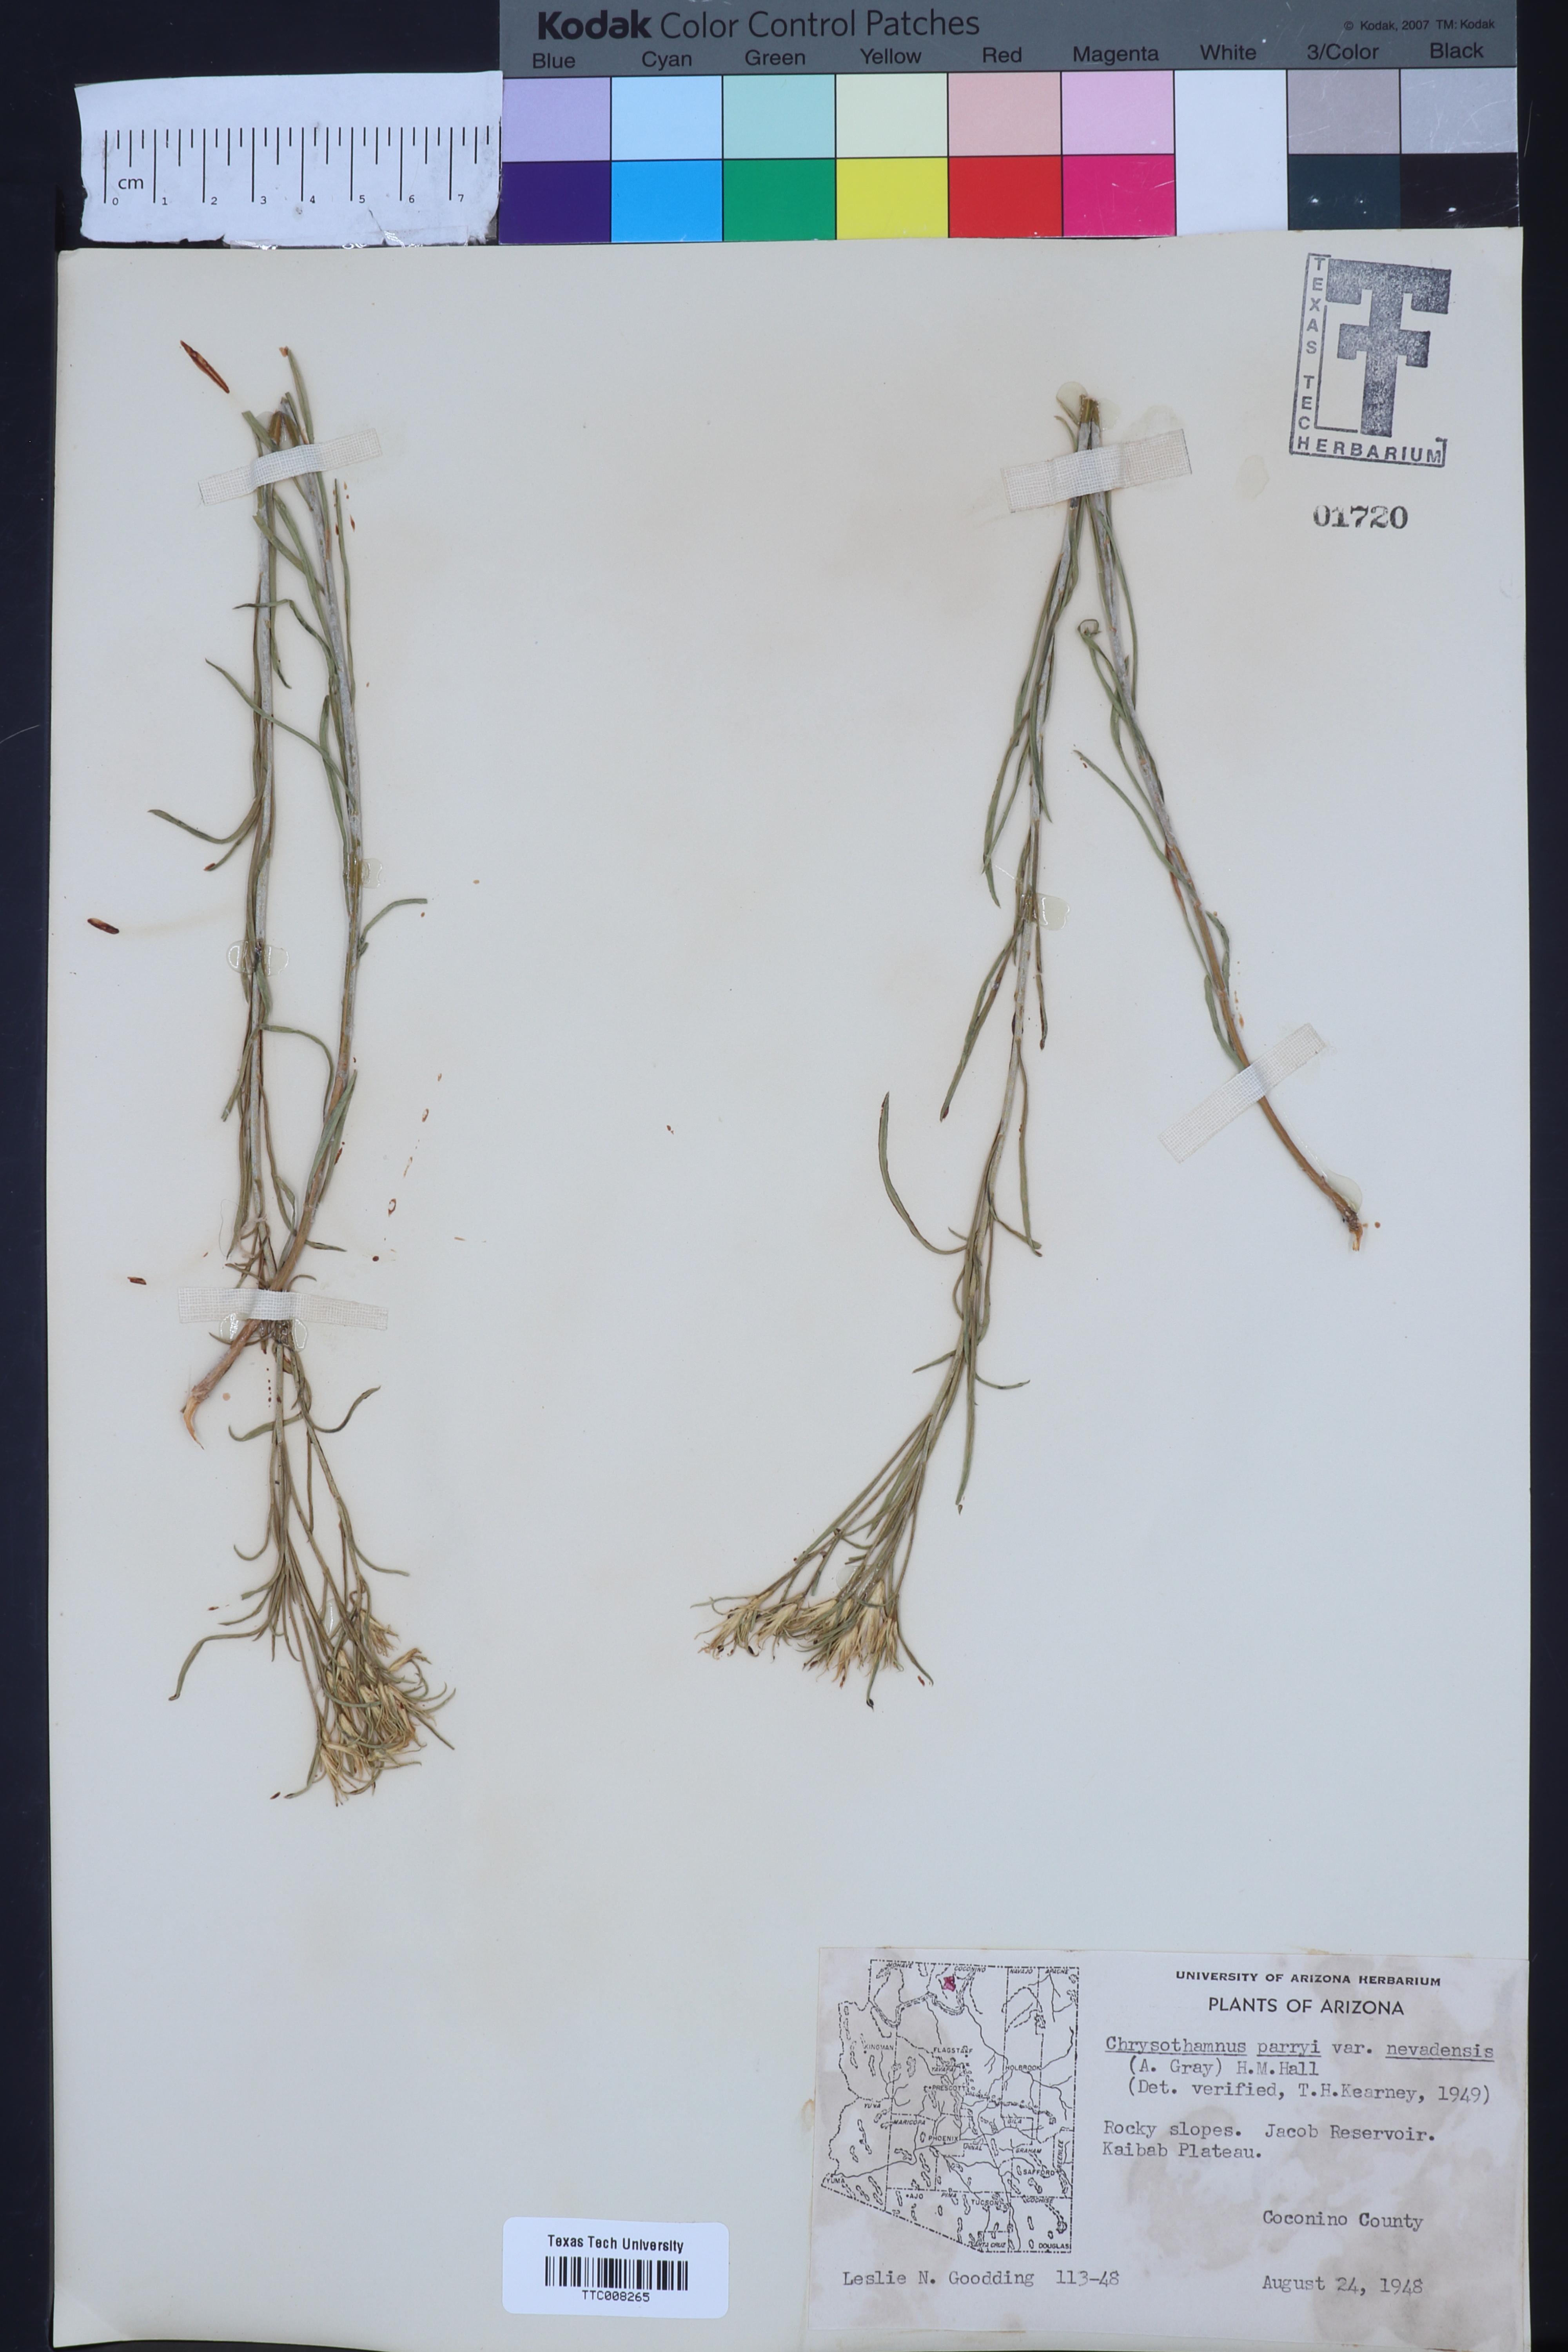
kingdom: Plantae
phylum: Tracheophyta
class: Magnoliopsida
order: Asterales
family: Asteraceae
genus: Ericameria
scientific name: Ericameria parryi
